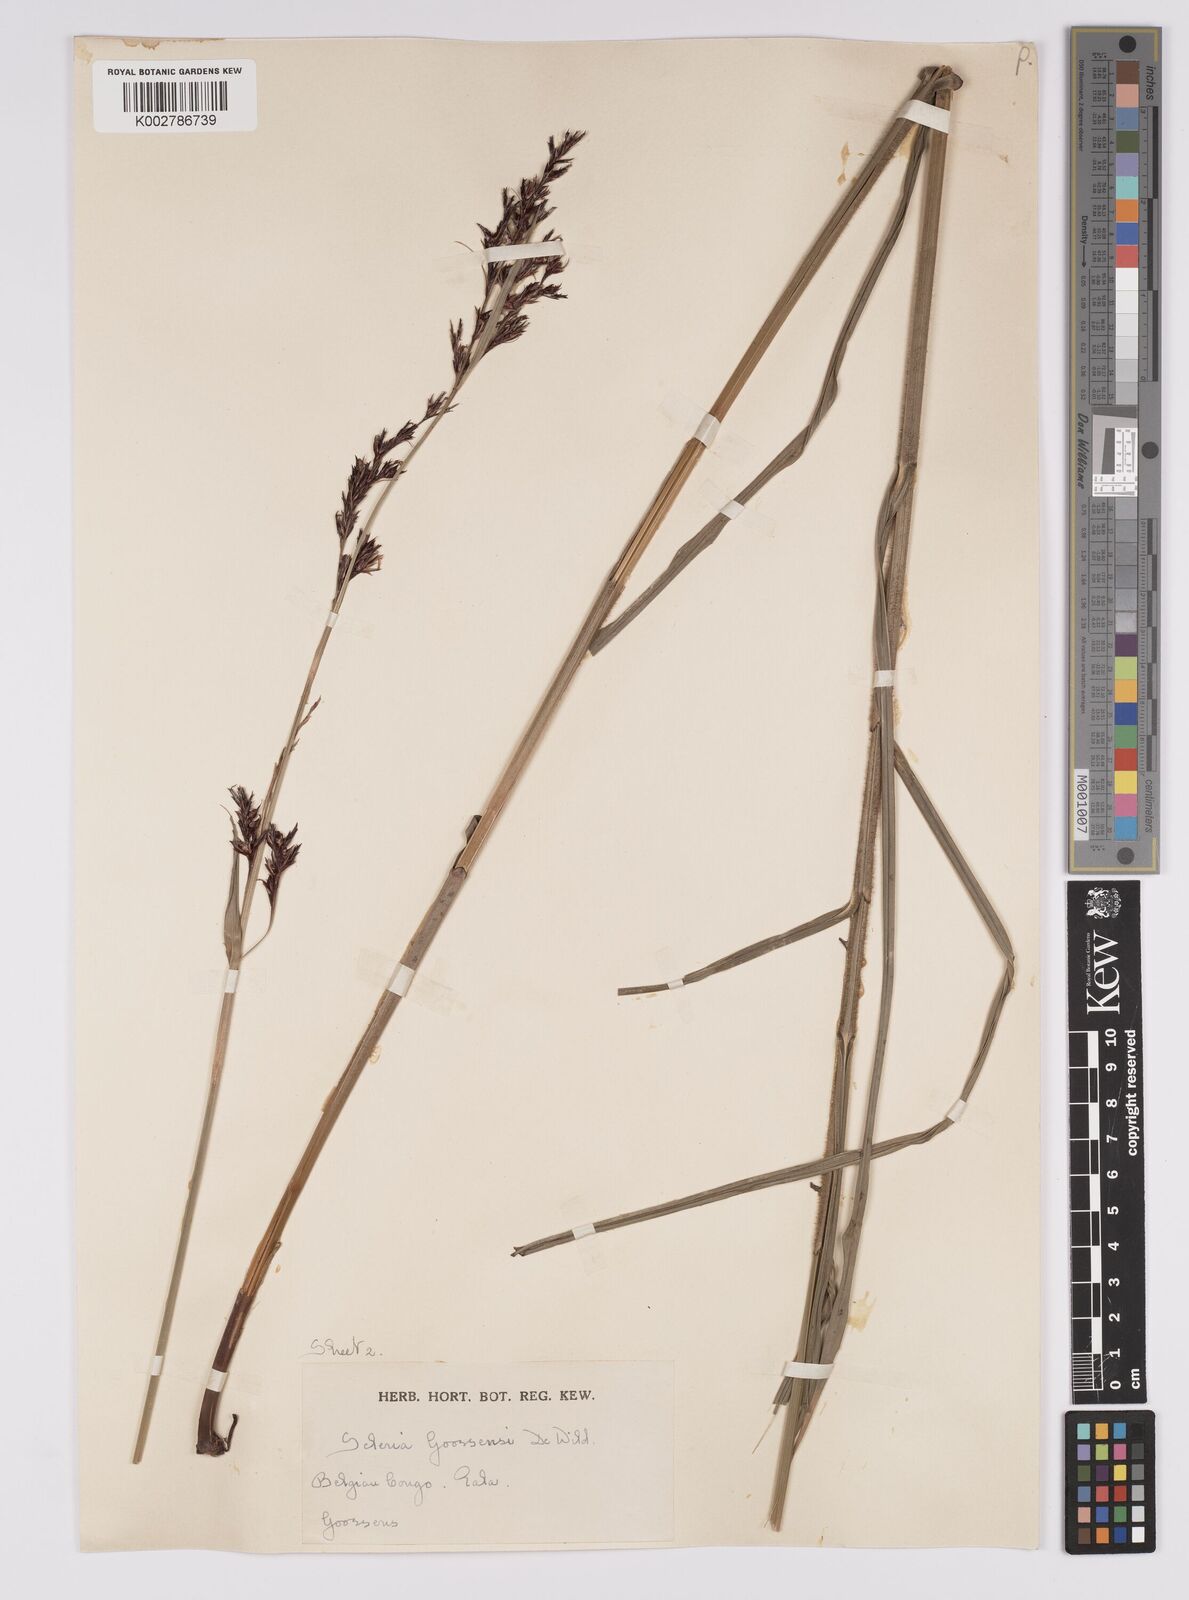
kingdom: Plantae
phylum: Tracheophyta
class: Liliopsida
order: Poales
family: Cyperaceae
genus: Scleria
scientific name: Scleria goossensii
